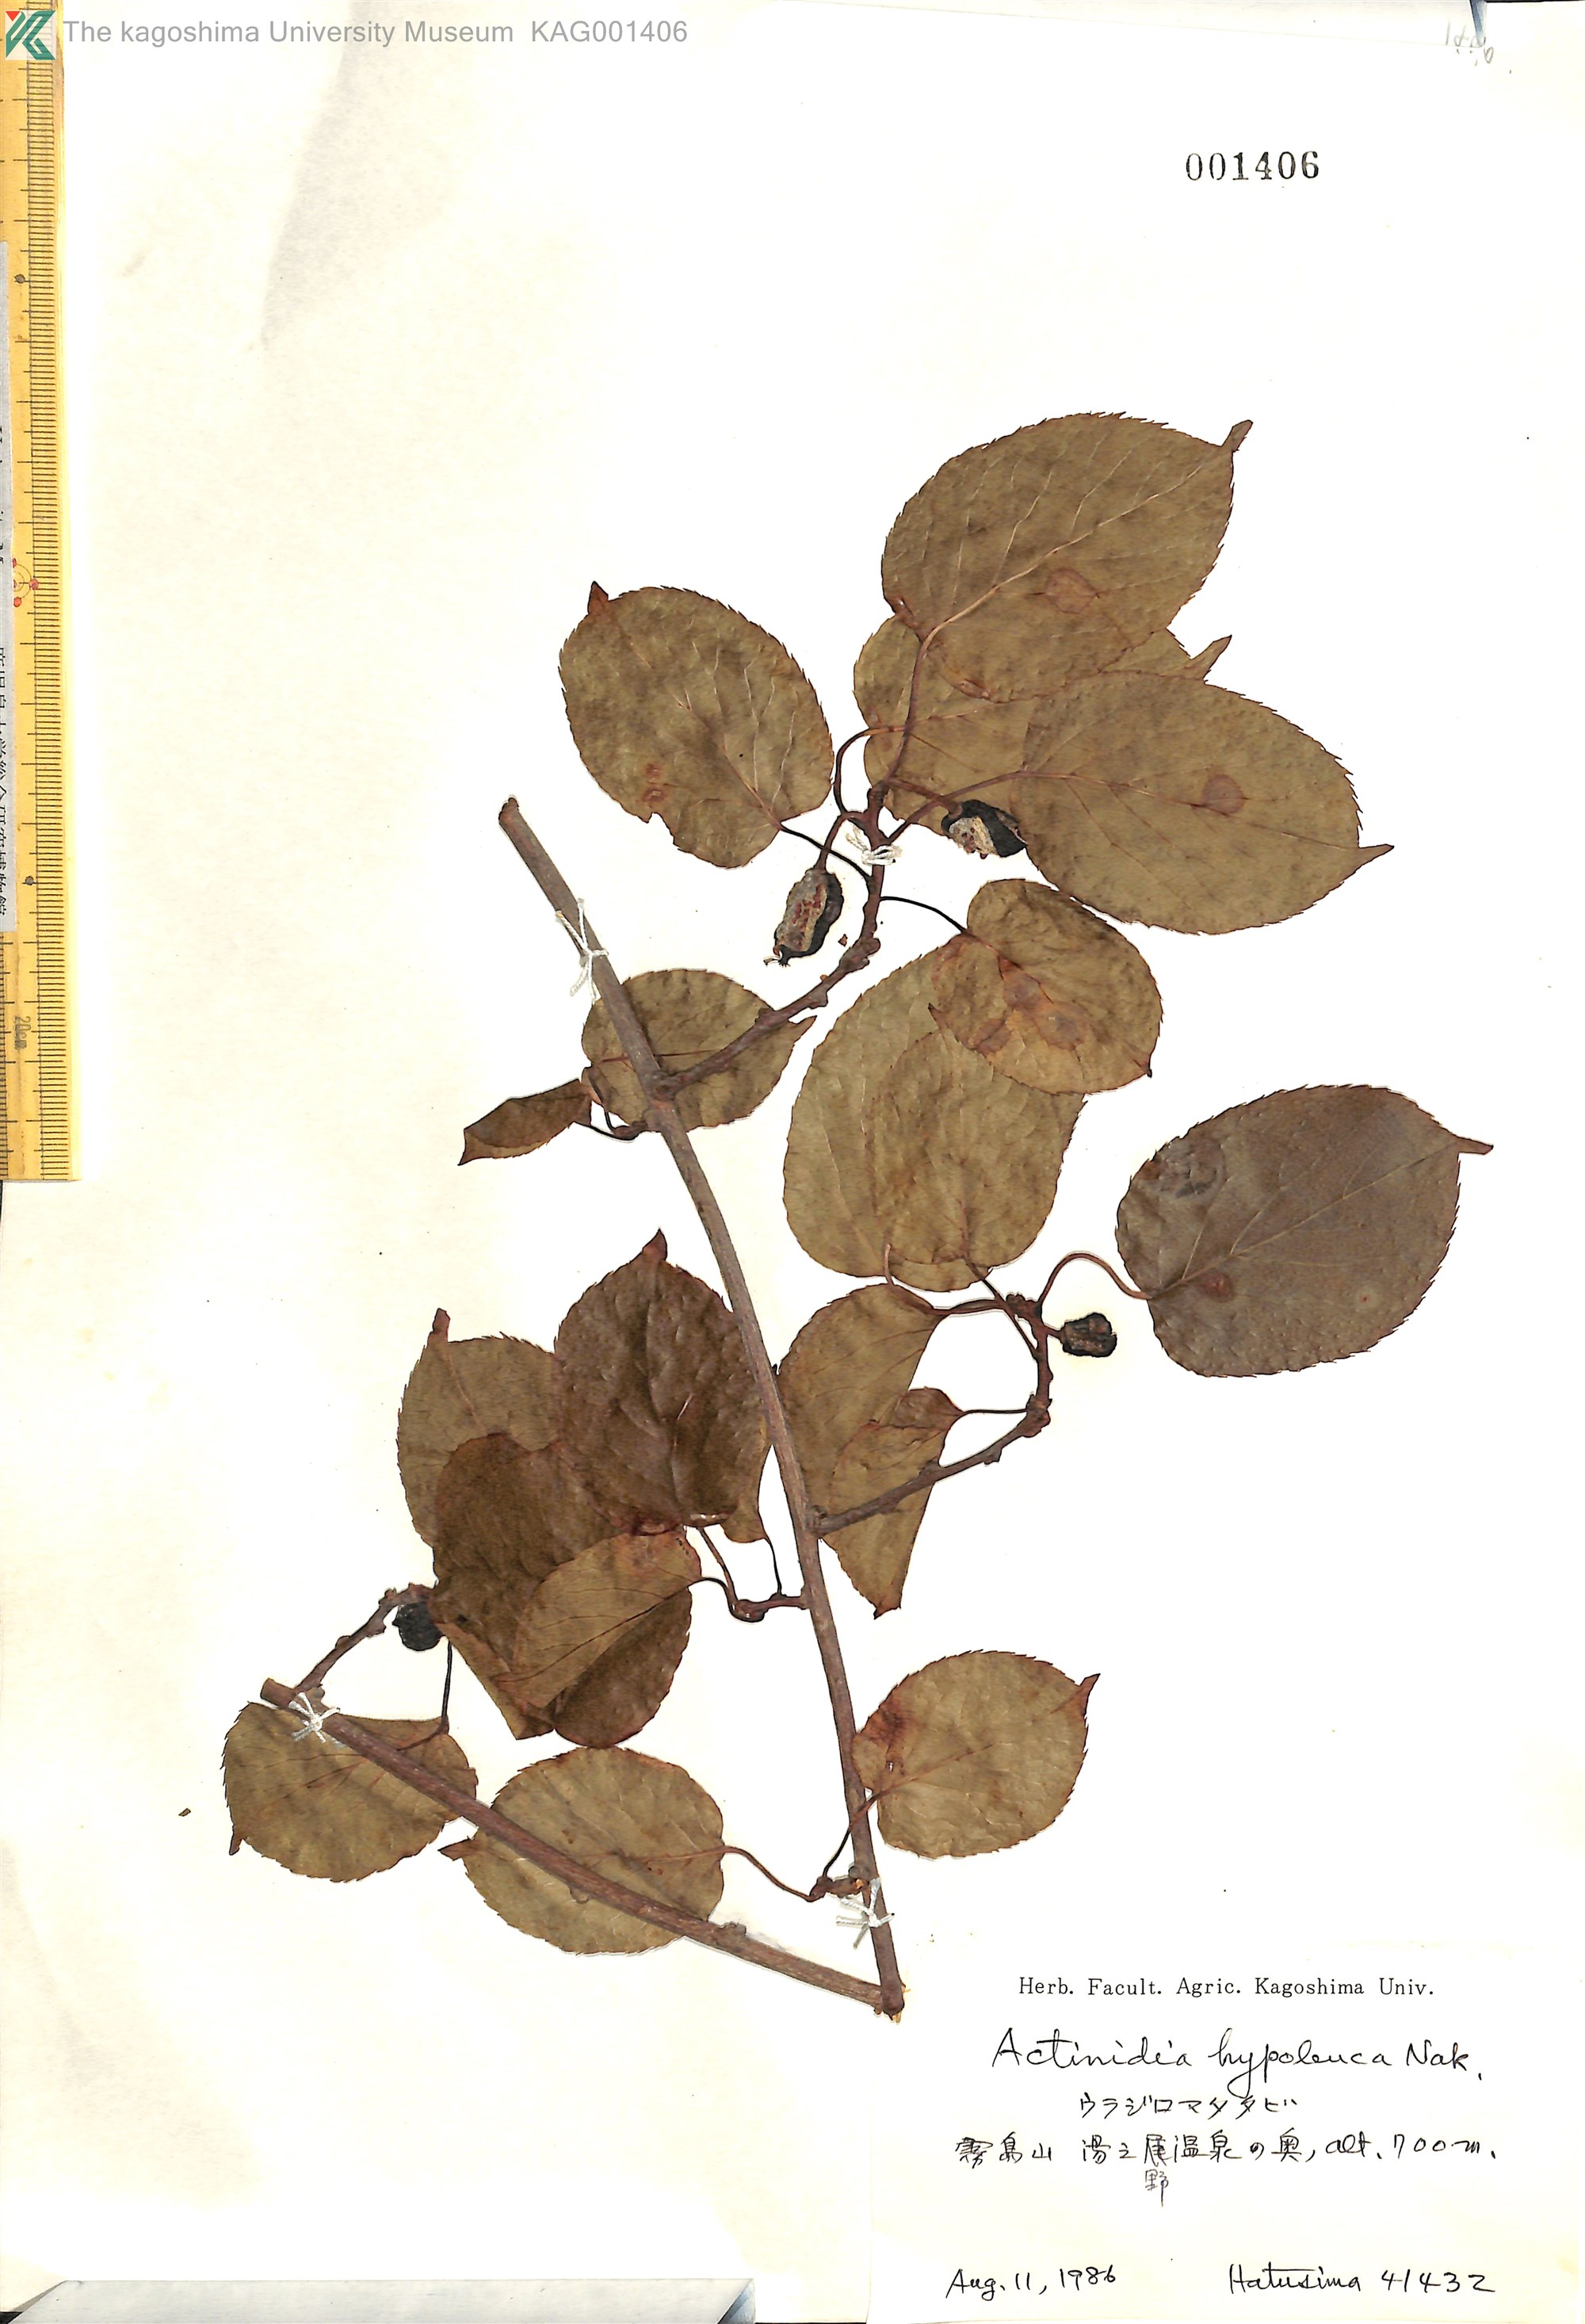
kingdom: Plantae
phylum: Tracheophyta
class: Magnoliopsida
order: Ericales
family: Actinidiaceae
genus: Actinidia
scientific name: Actinidia arguta
